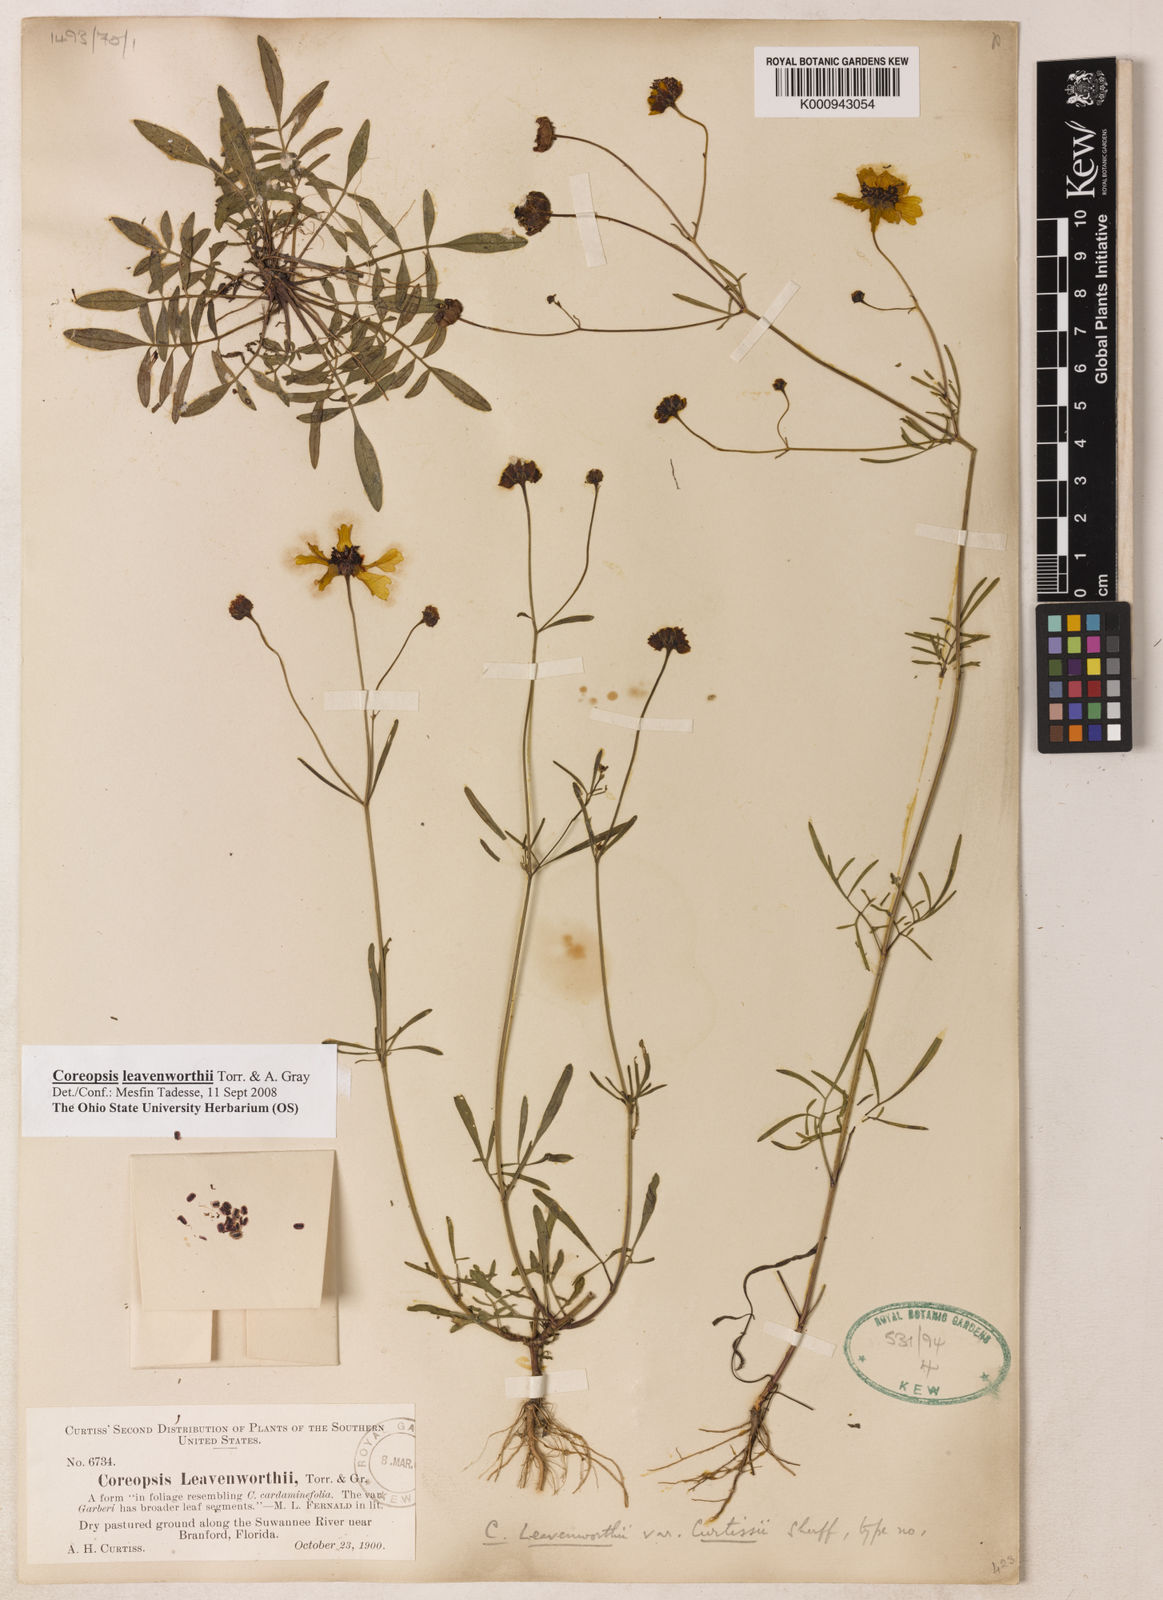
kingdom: Plantae
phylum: Tracheophyta
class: Magnoliopsida
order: Asterales
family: Asteraceae
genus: Coreopsis
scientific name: Coreopsis leavenworthii
